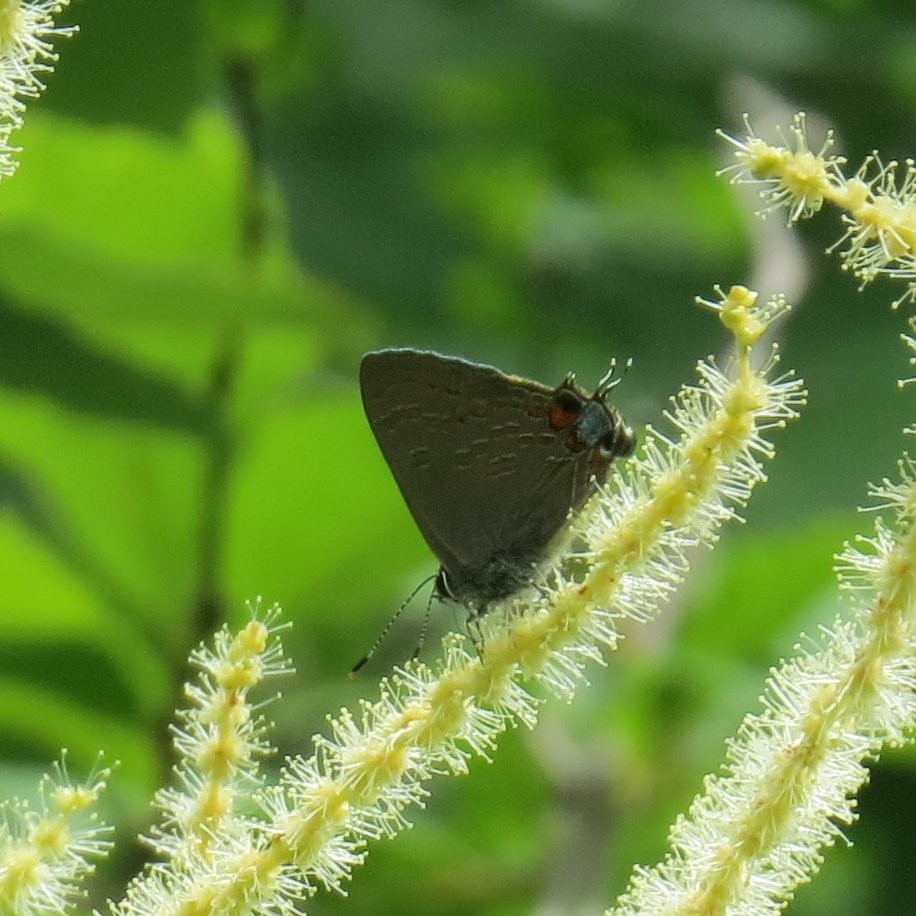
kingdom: Animalia
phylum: Arthropoda
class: Insecta
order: Lepidoptera
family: Lycaenidae
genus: Strymon
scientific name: Strymon kingi
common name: King's Hairstreak
